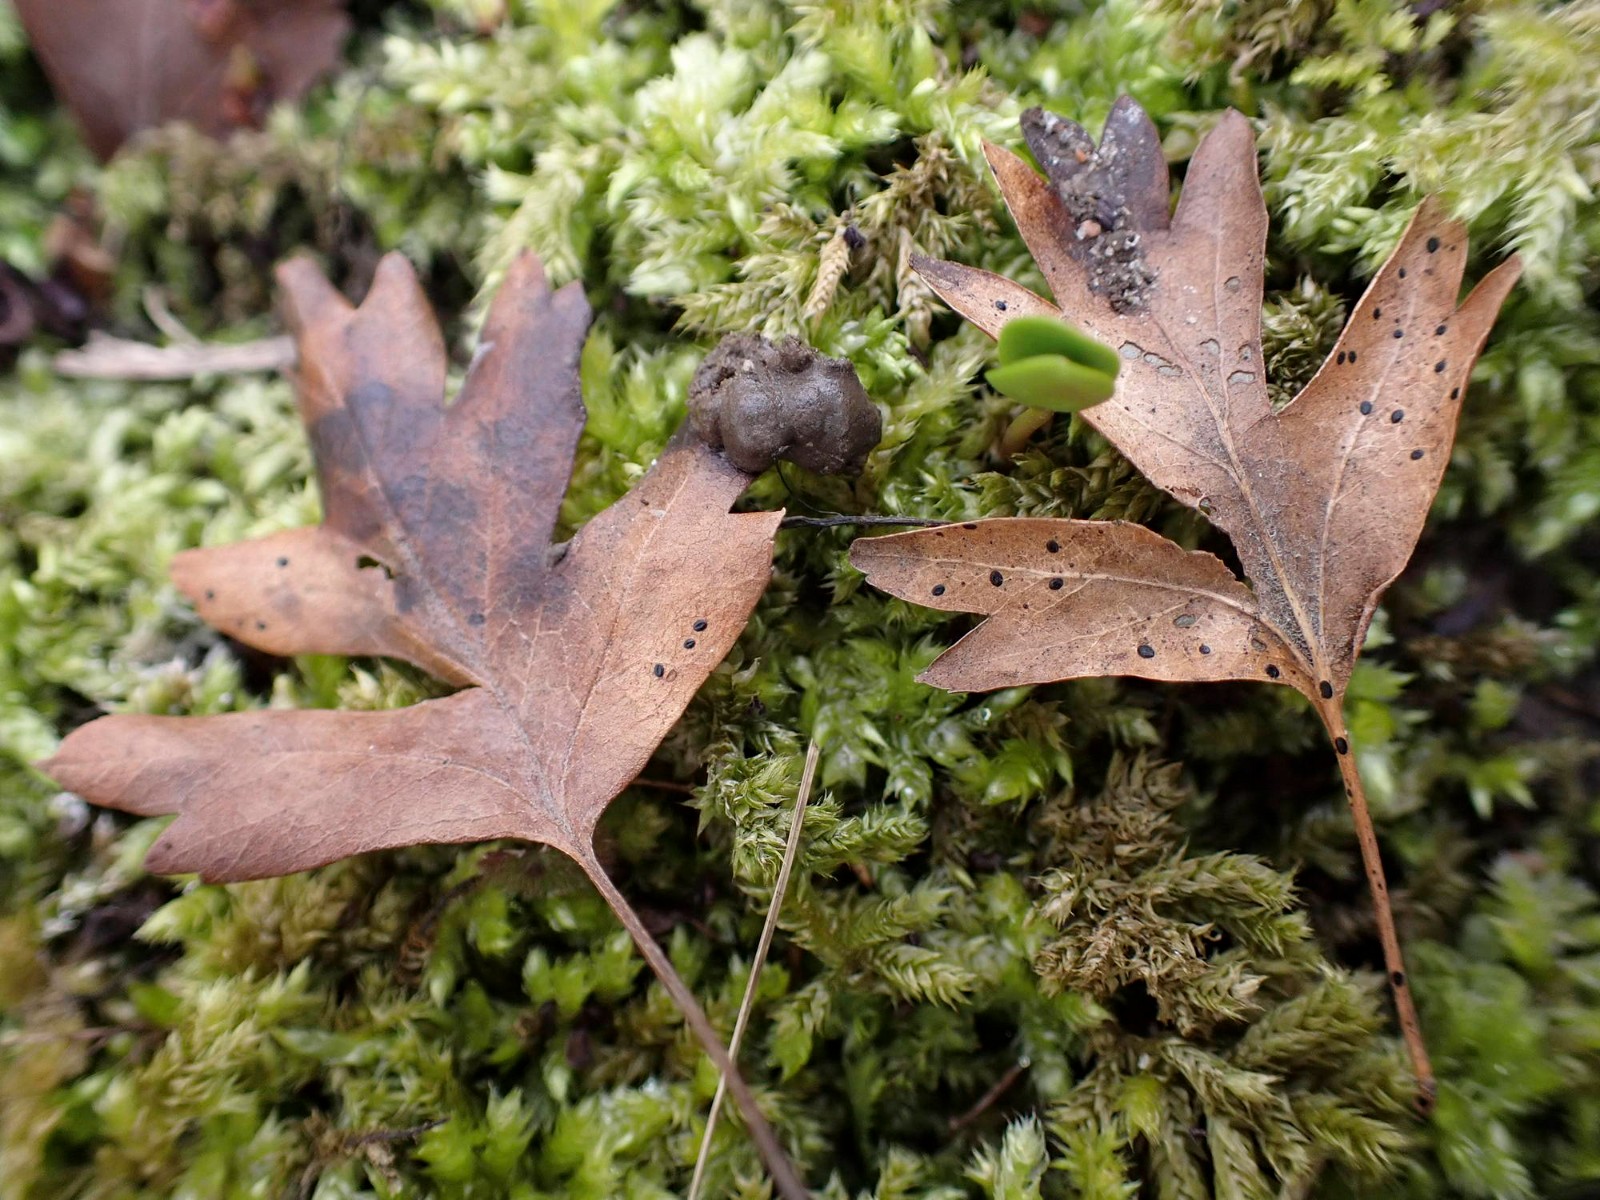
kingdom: Fungi
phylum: Ascomycota
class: Leotiomycetes
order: Rhytismatales
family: Rhytismataceae
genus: Lophodermium
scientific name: Lophodermium foliicola
